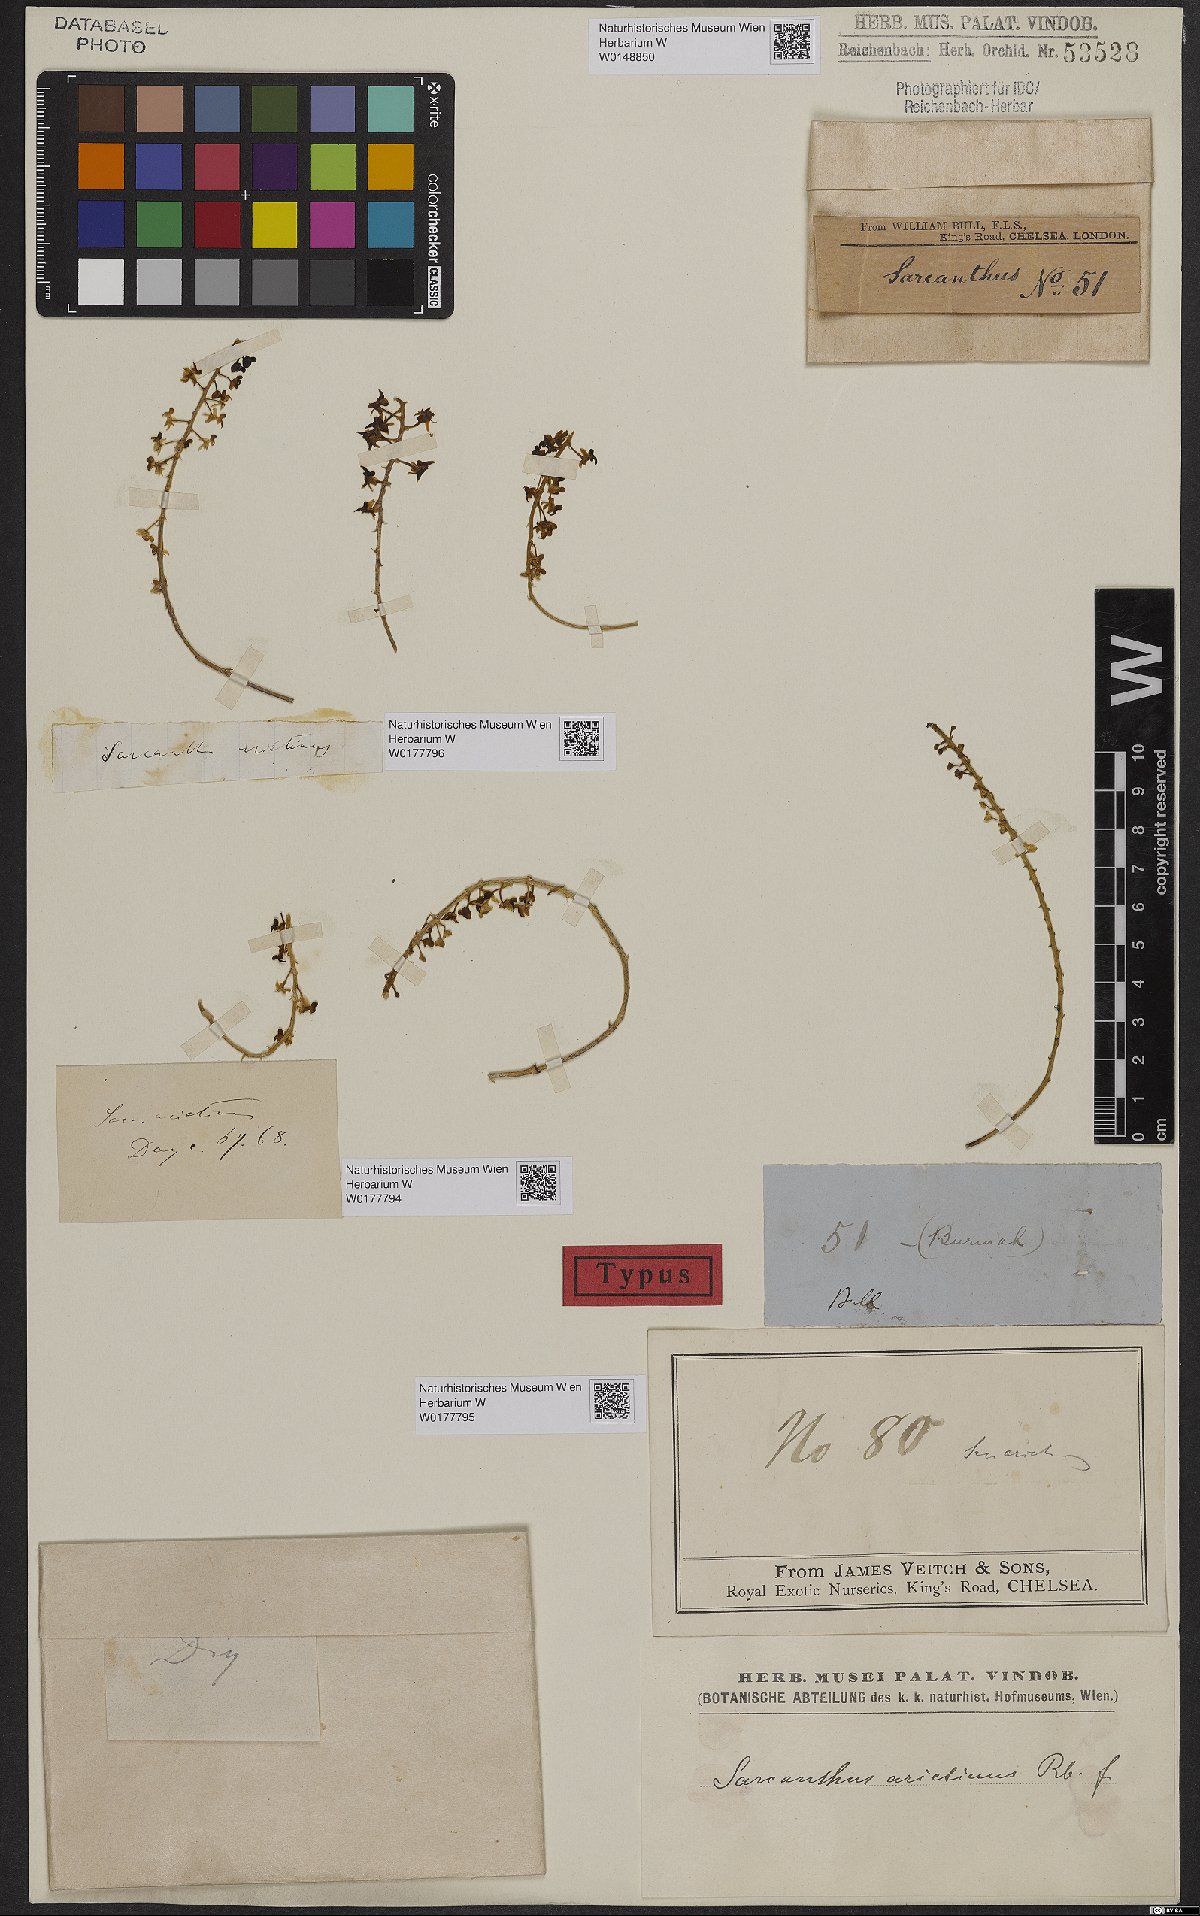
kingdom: Plantae
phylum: Tracheophyta
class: Liliopsida
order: Asparagales
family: Orchidaceae
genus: Cleisostoma
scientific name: Cleisostoma arietinum
